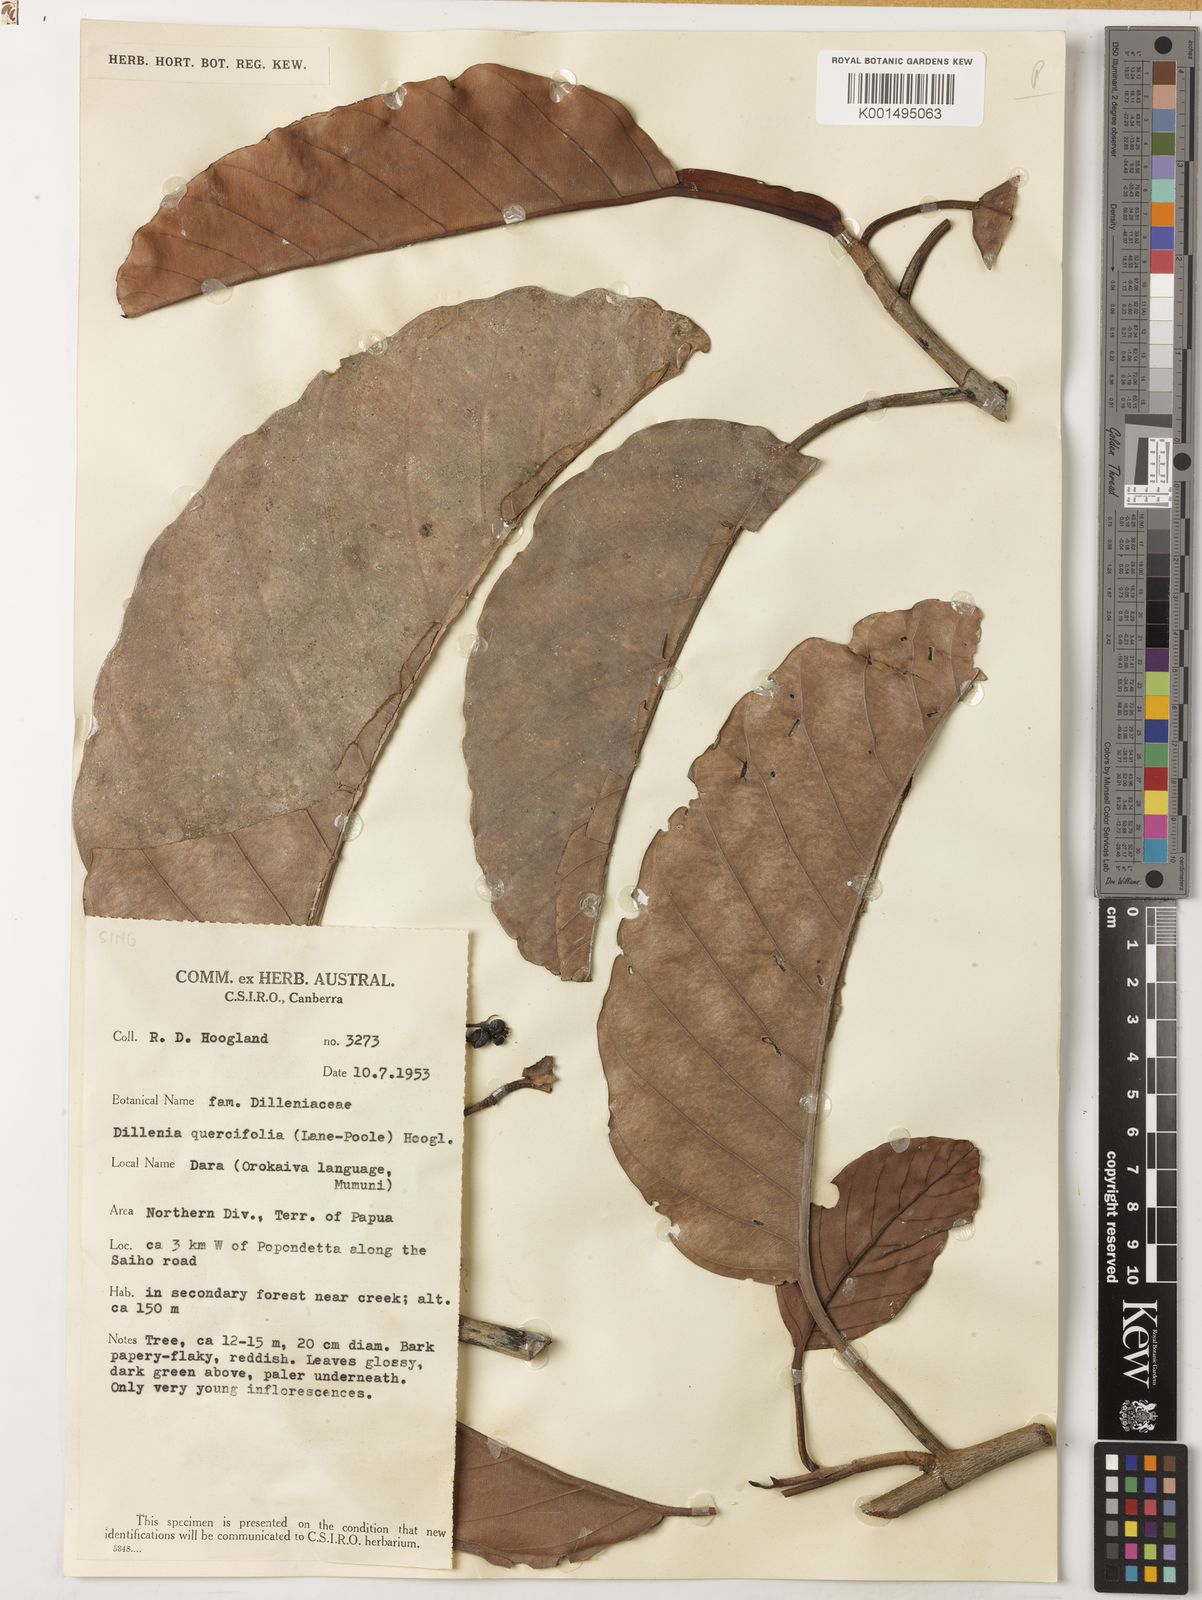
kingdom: Plantae
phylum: Tracheophyta
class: Magnoliopsida
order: Dilleniales
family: Dilleniaceae
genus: Dillenia
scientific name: Dillenia quercifolia
